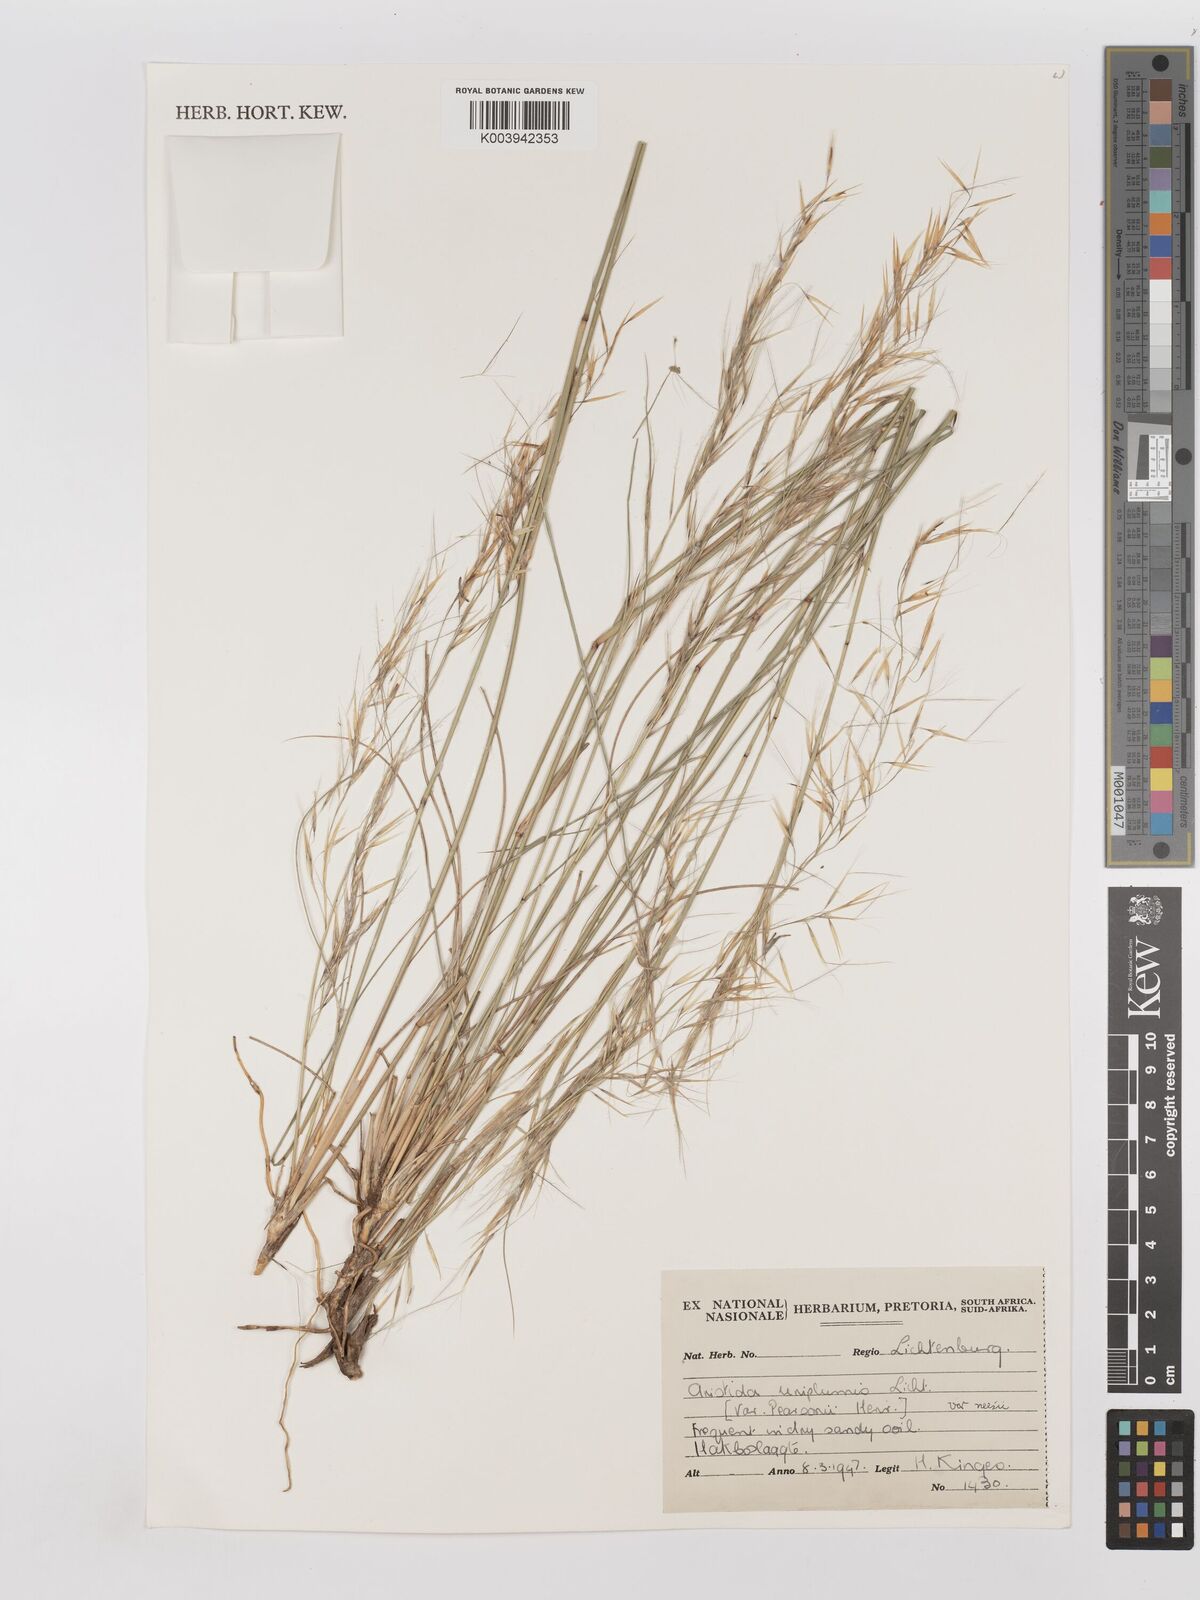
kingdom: Plantae
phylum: Tracheophyta
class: Liliopsida
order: Poales
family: Poaceae
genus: Stipagrostis
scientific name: Stipagrostis uniplumis
